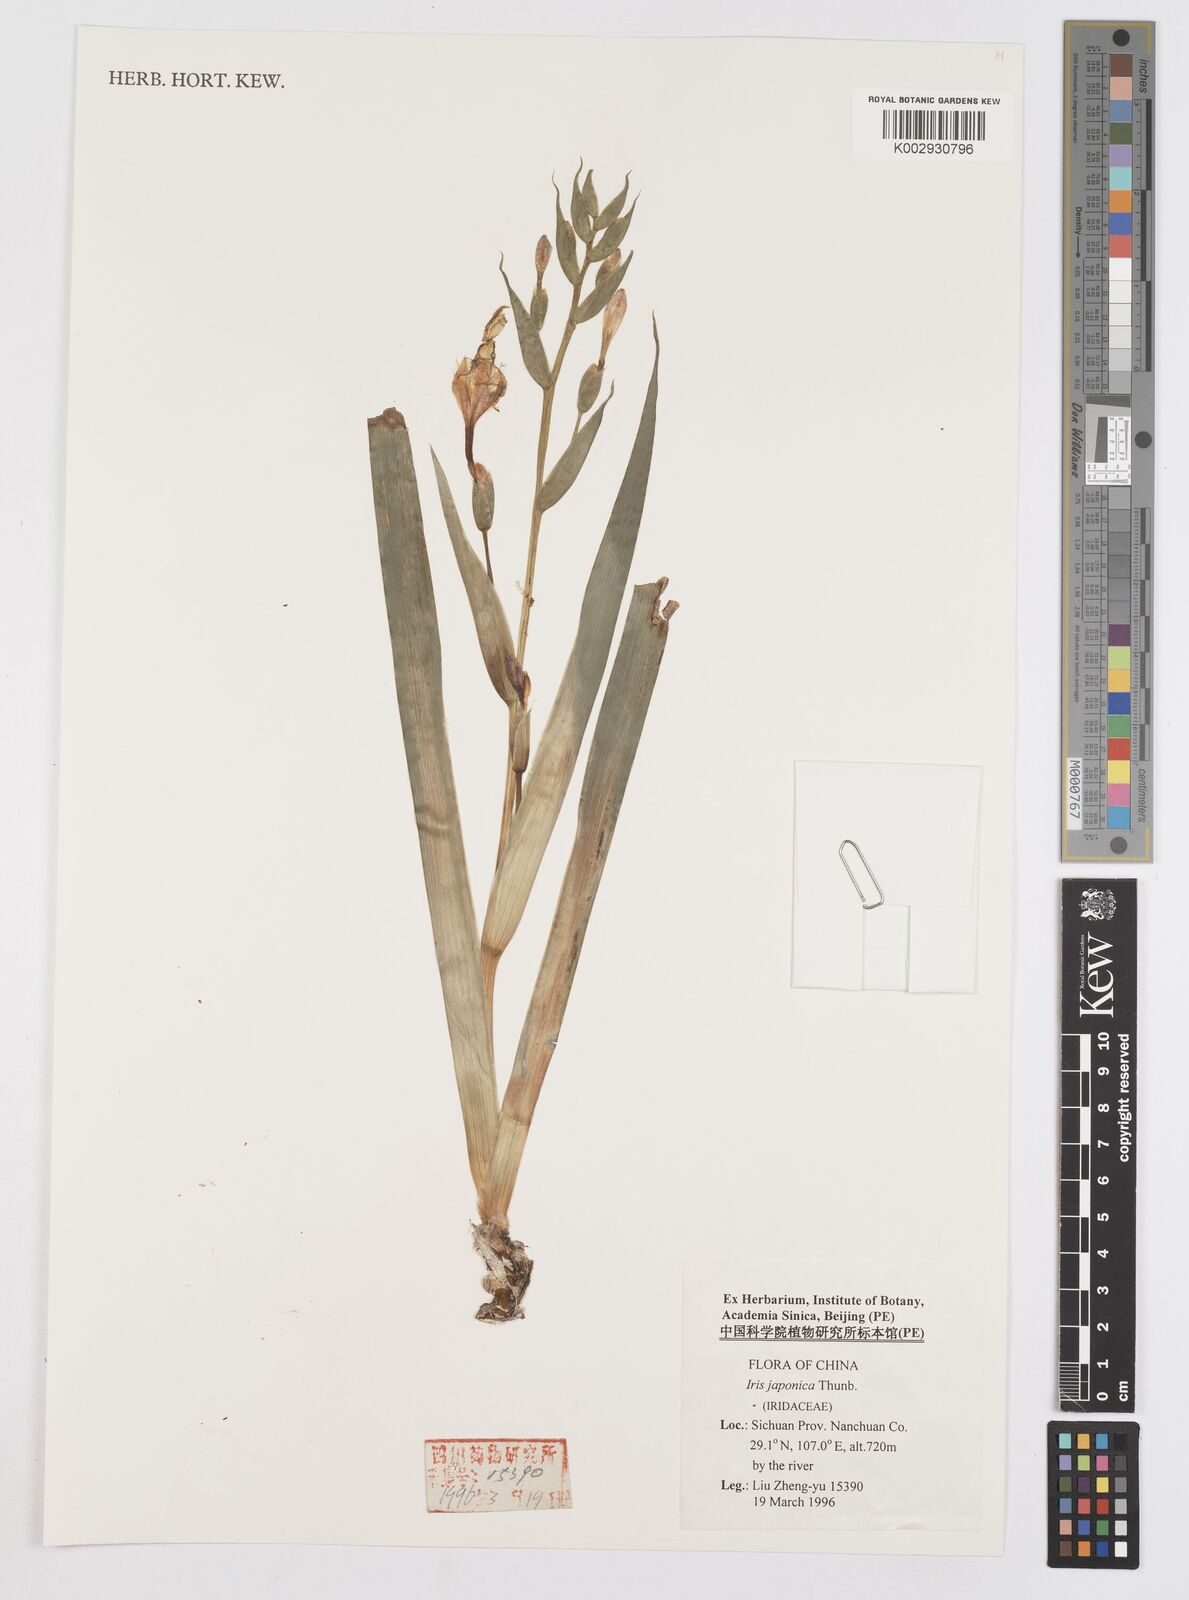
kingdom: Plantae
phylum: Tracheophyta
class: Liliopsida
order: Asparagales
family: Iridaceae
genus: Iris
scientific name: Iris japonica
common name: Butterfly-flower
